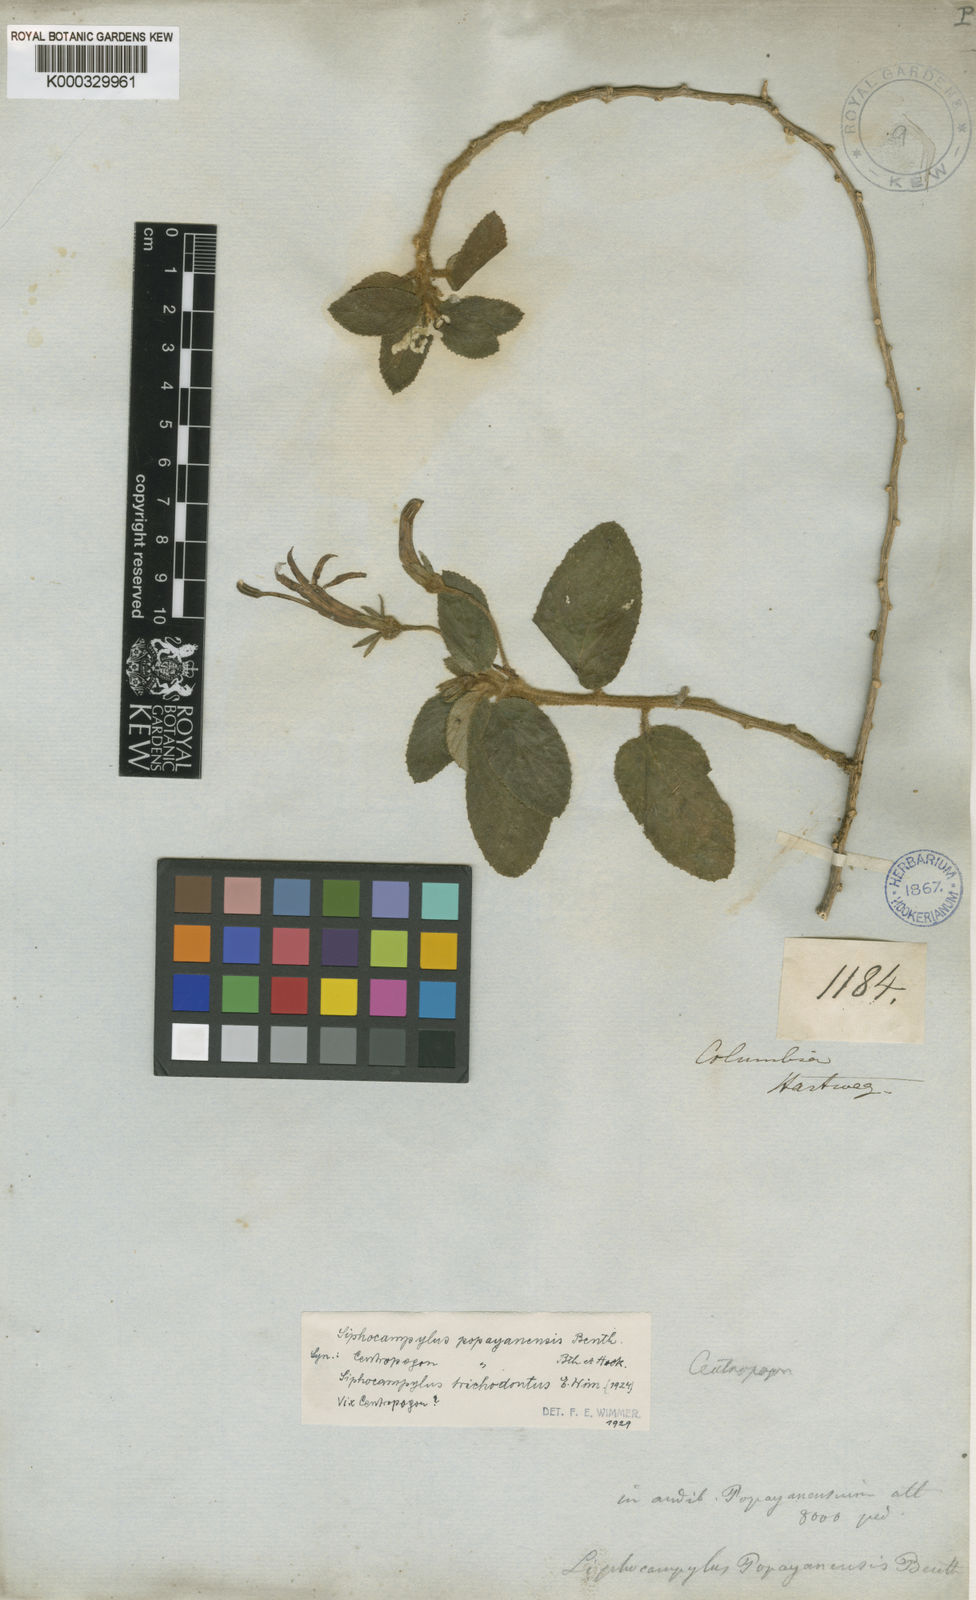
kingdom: Plantae
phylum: Tracheophyta
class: Magnoliopsida
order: Asterales
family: Campanulaceae
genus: Siphocampylus
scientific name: Siphocampylus popayanensis
